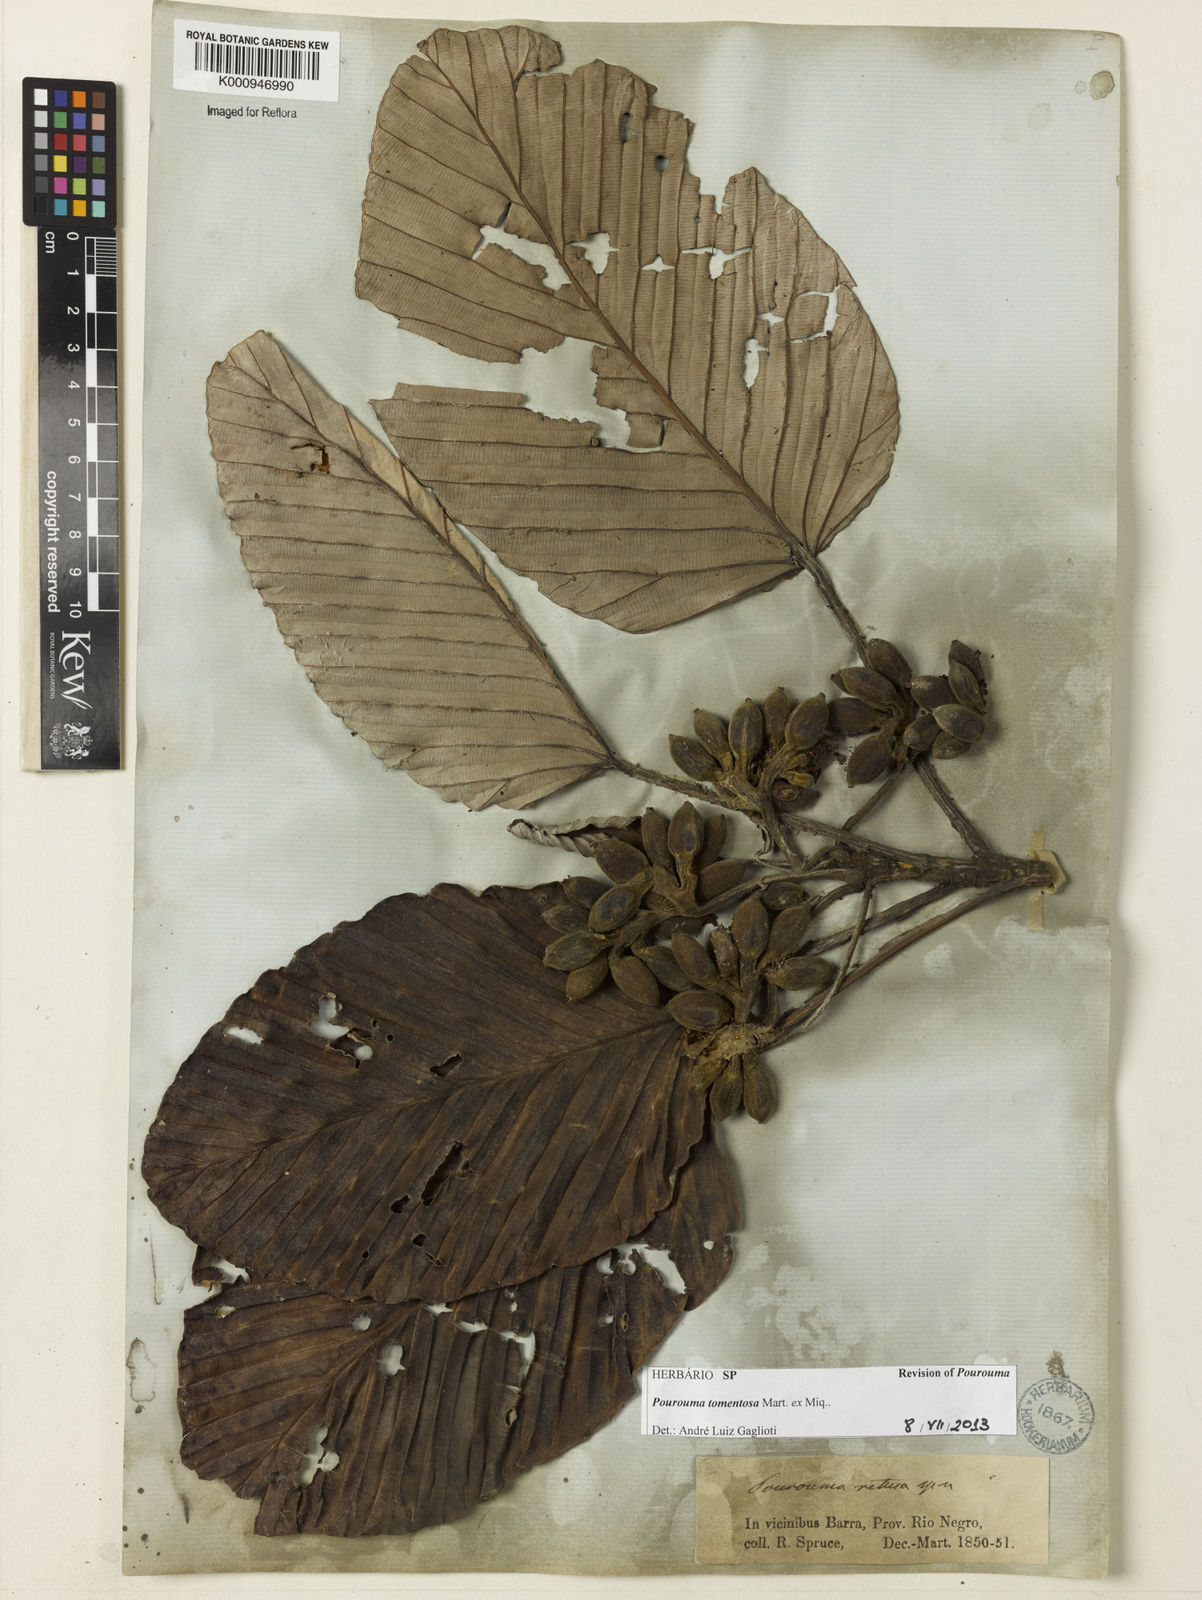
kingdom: Plantae
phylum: Tracheophyta
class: Magnoliopsida
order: Rosales
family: Urticaceae
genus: Pourouma
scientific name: Pourouma tomentosa
